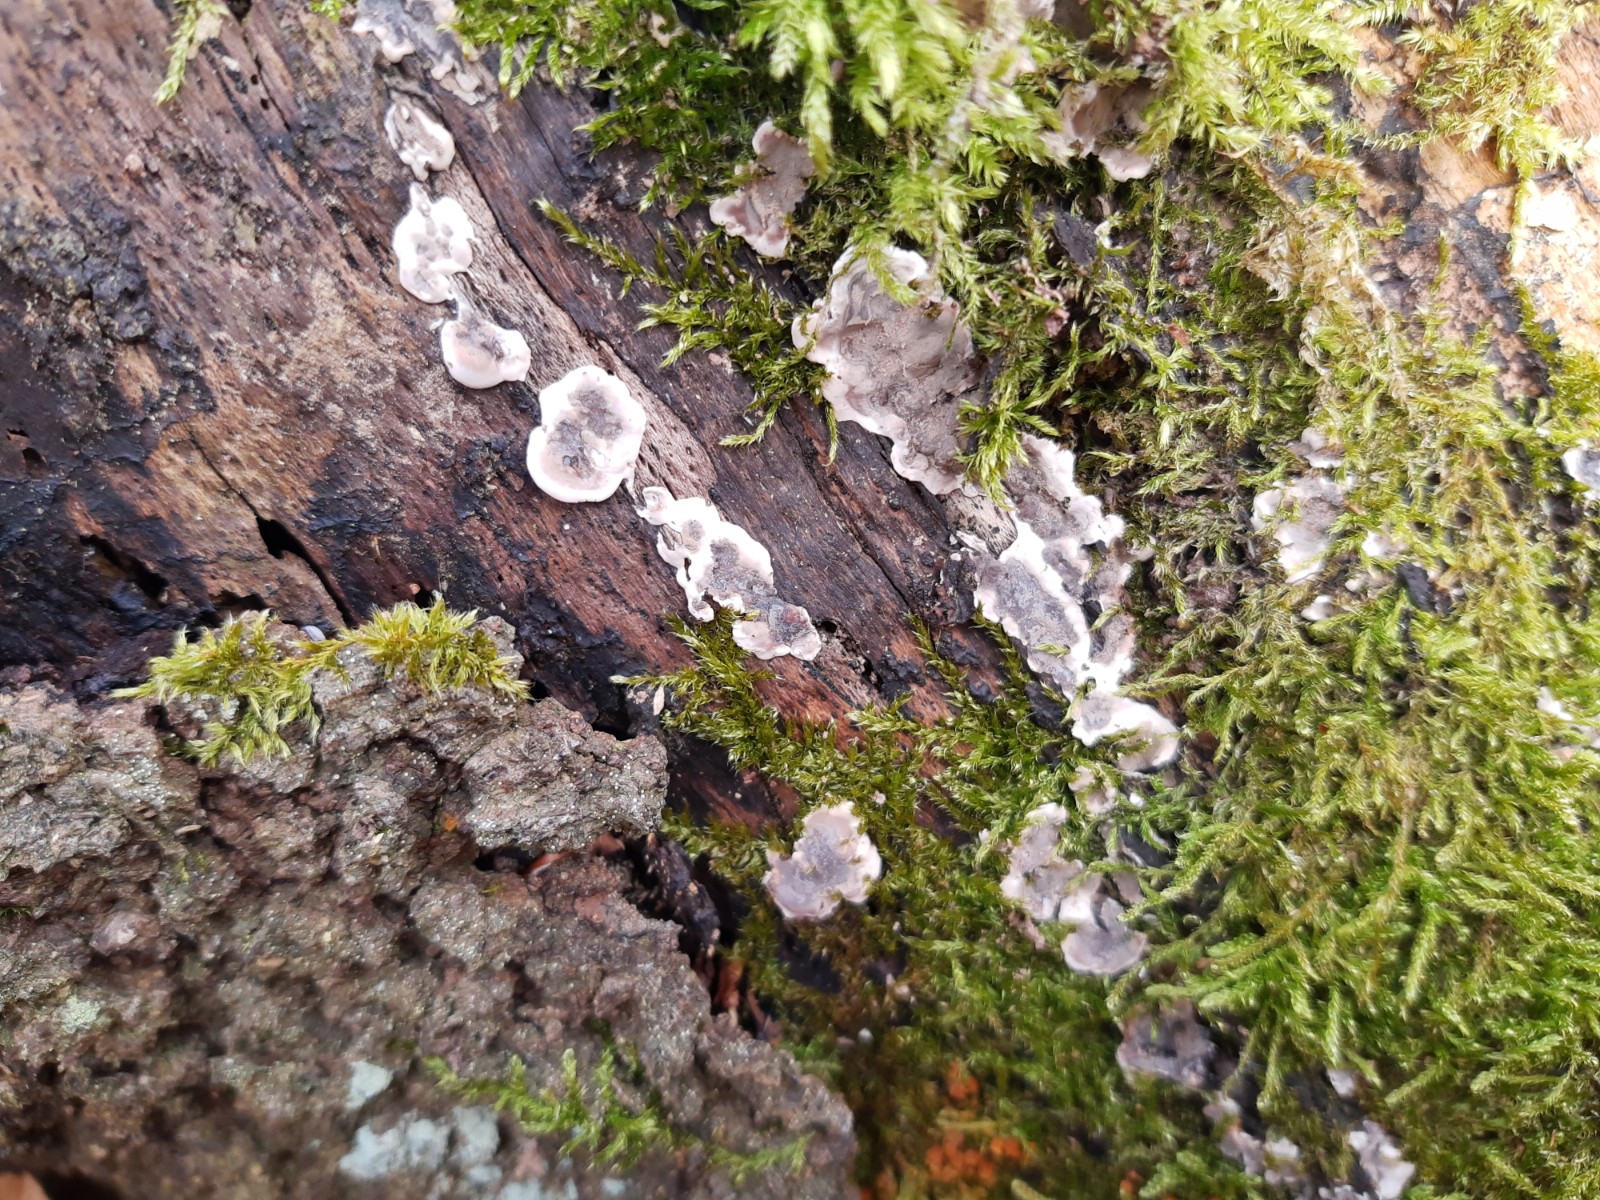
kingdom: Fungi
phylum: Ascomycota
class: Sordariomycetes
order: Xylariales
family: Xylariaceae
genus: Kretzschmaria
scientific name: Kretzschmaria deusta
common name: stor kulsvamp
